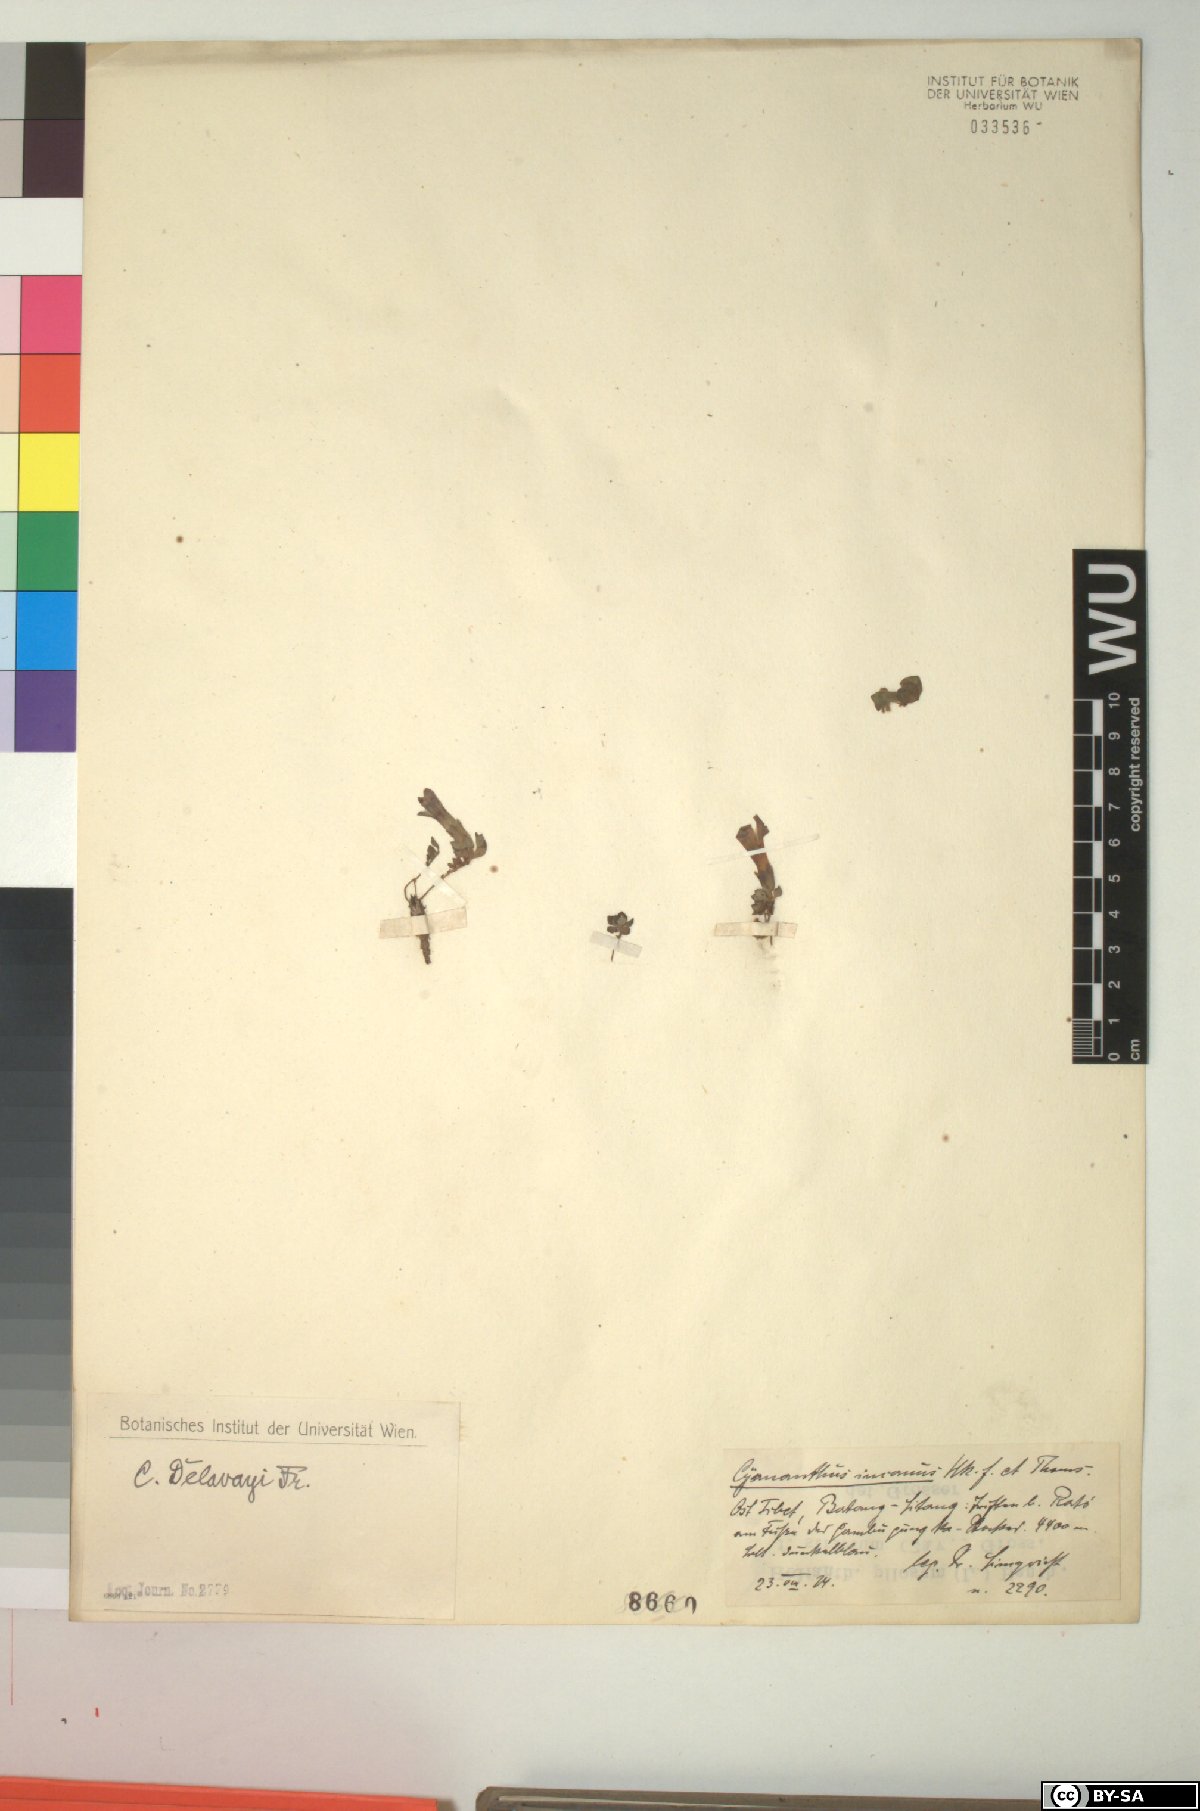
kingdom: Plantae
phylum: Tracheophyta
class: Magnoliopsida
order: Asterales
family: Campanulaceae
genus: Cyananthus
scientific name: Cyananthus delavayi
